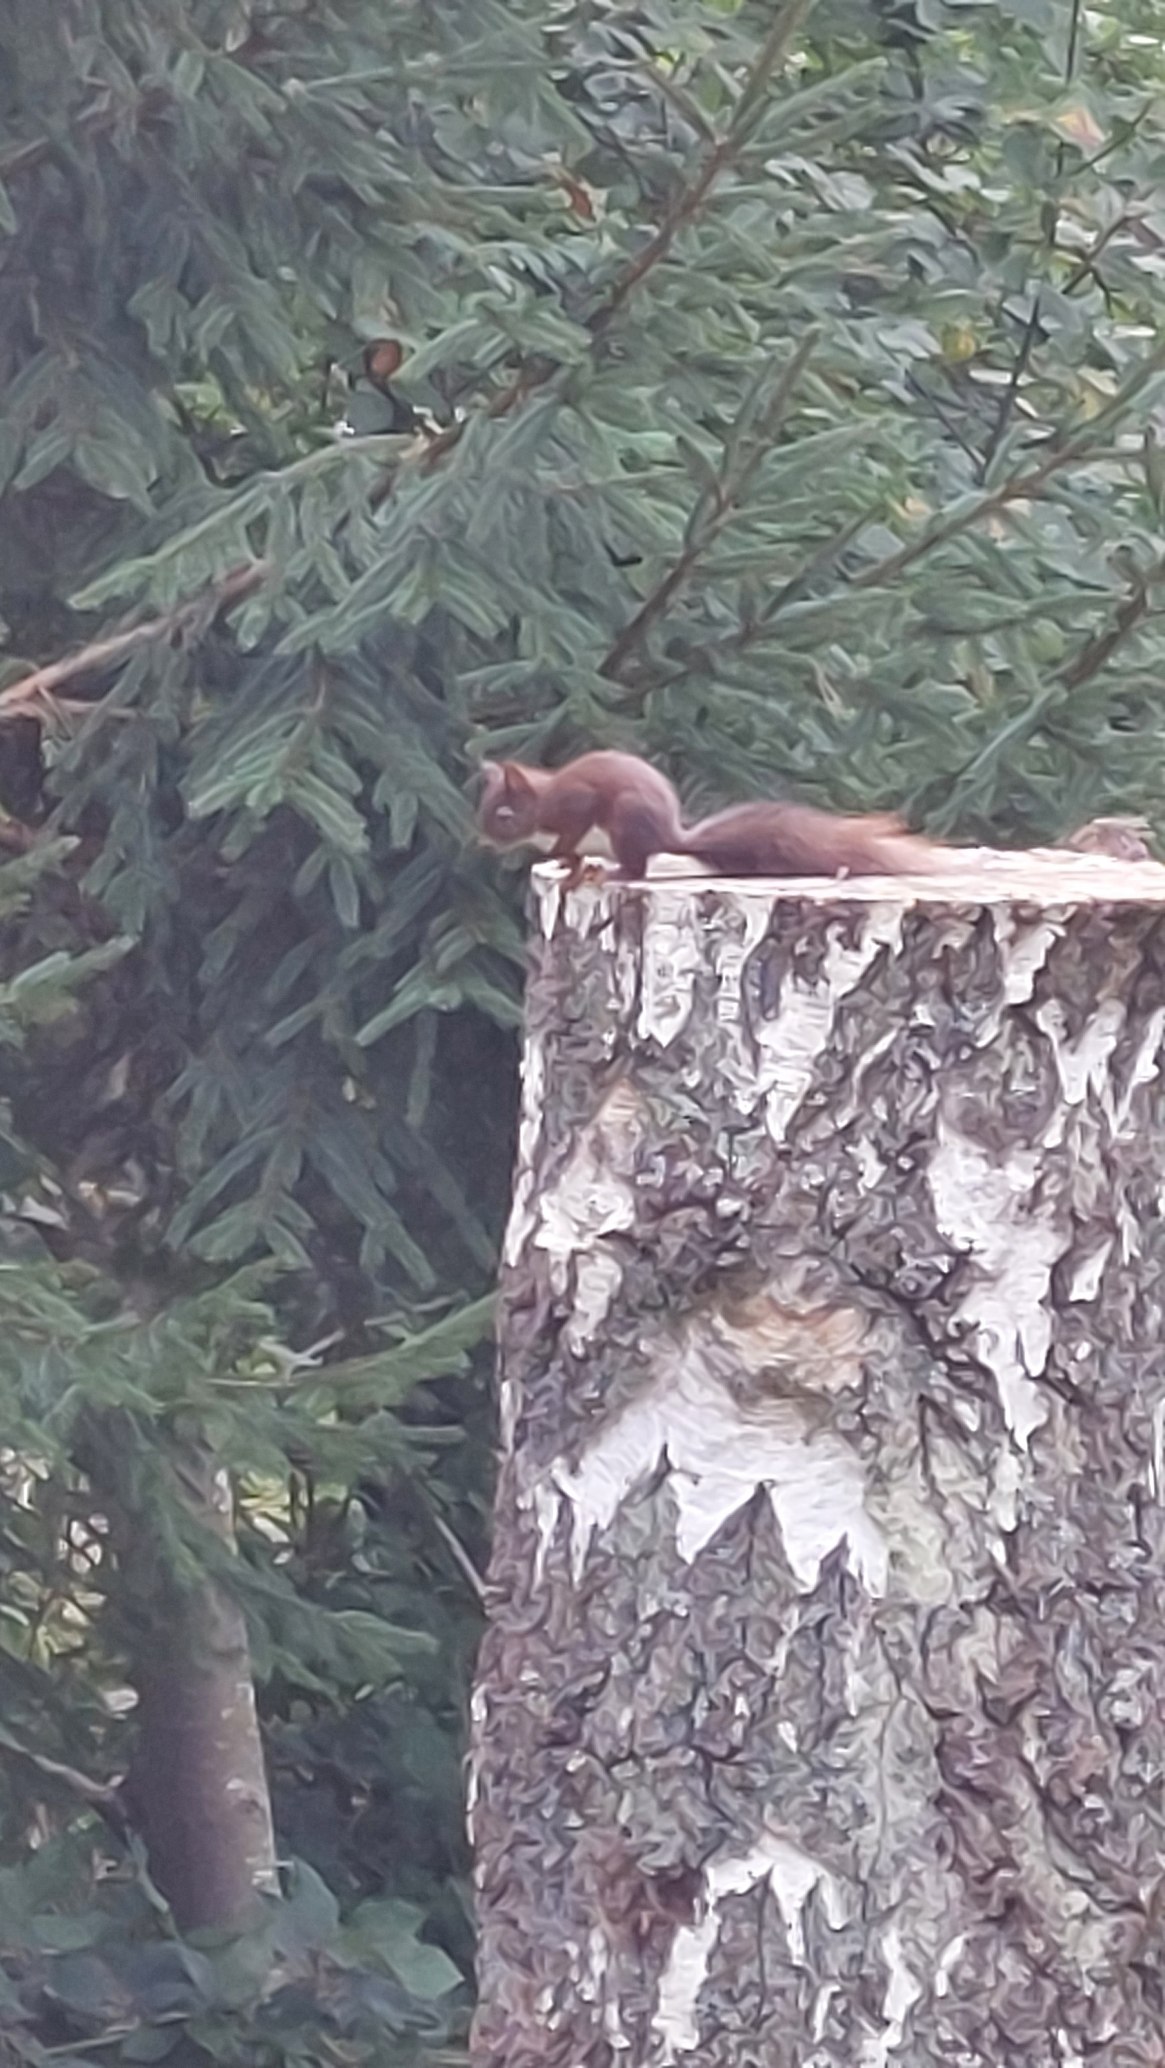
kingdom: Animalia
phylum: Chordata
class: Mammalia
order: Rodentia
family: Sciuridae
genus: Sciurus
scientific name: Sciurus vulgaris
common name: Egern
